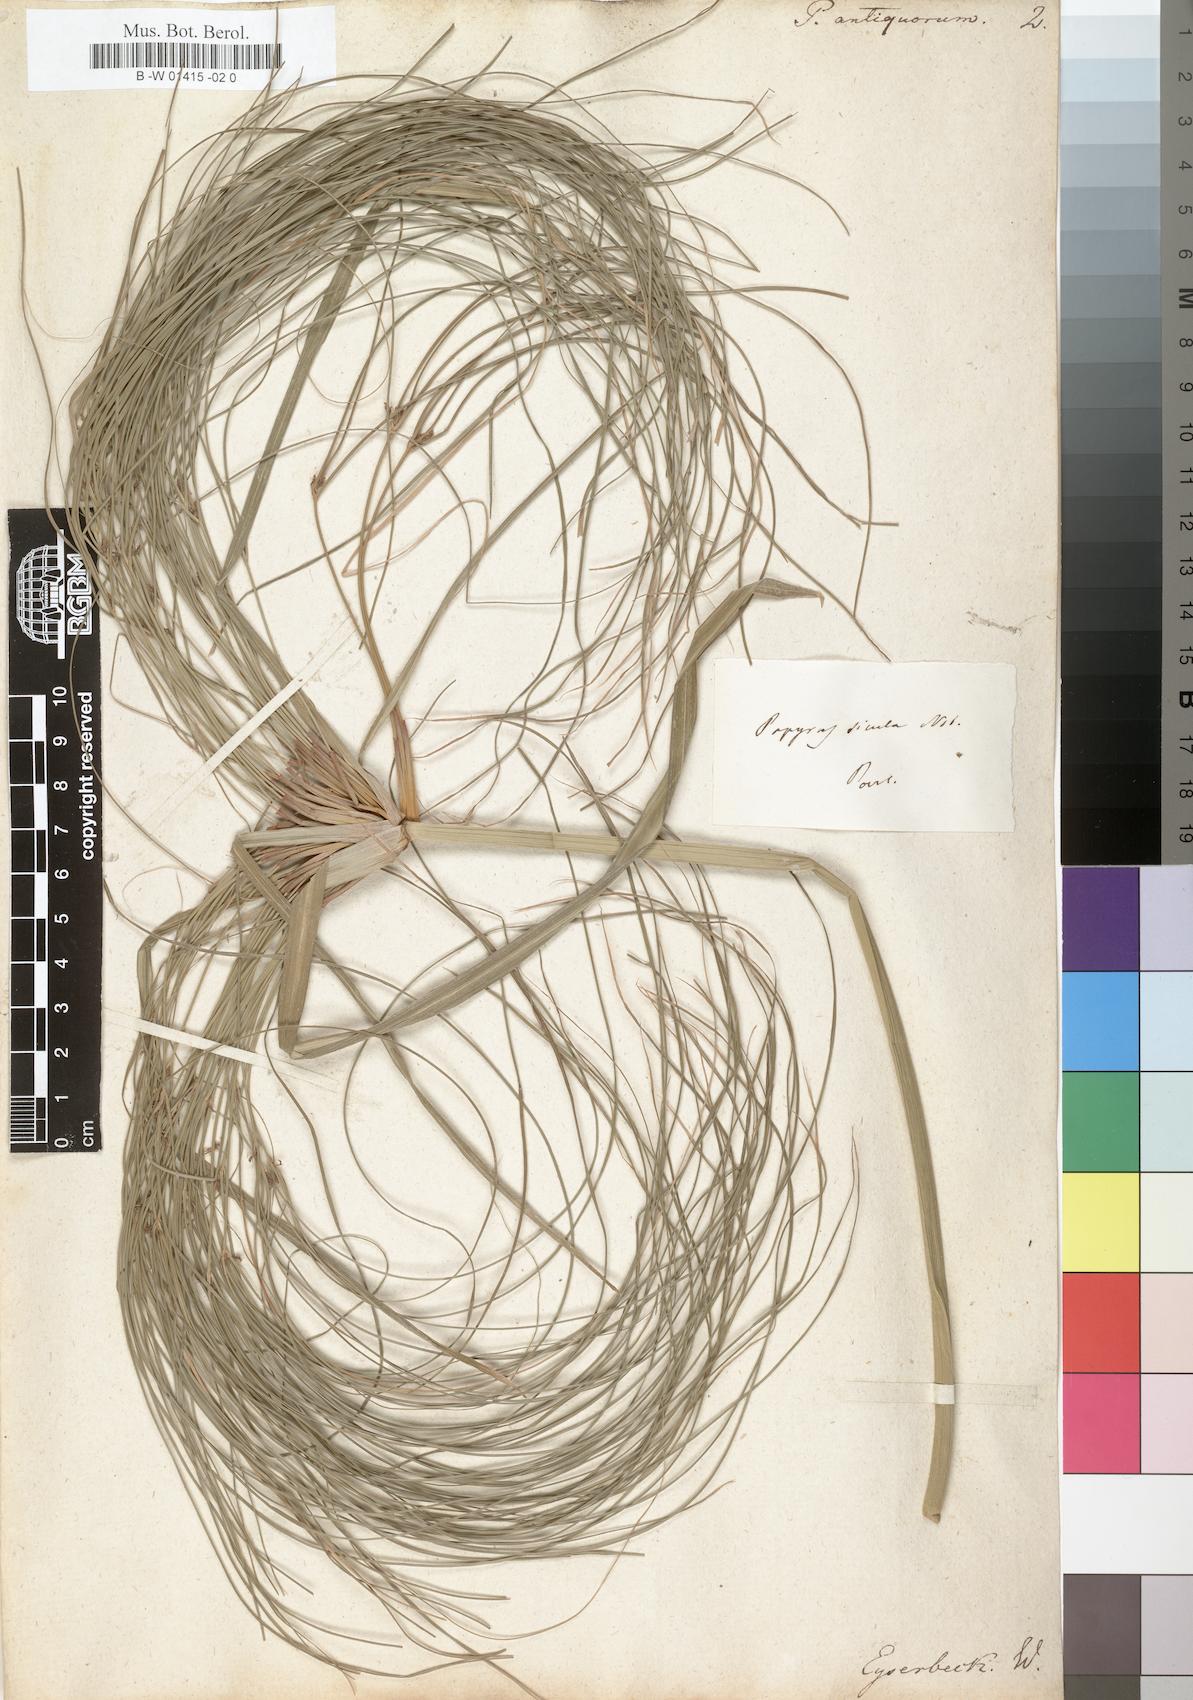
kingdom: Plantae
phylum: Tracheophyta
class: Liliopsida
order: Poales
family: Cyperaceae
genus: Cyperus
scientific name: Cyperus papyrus
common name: Papyrus
